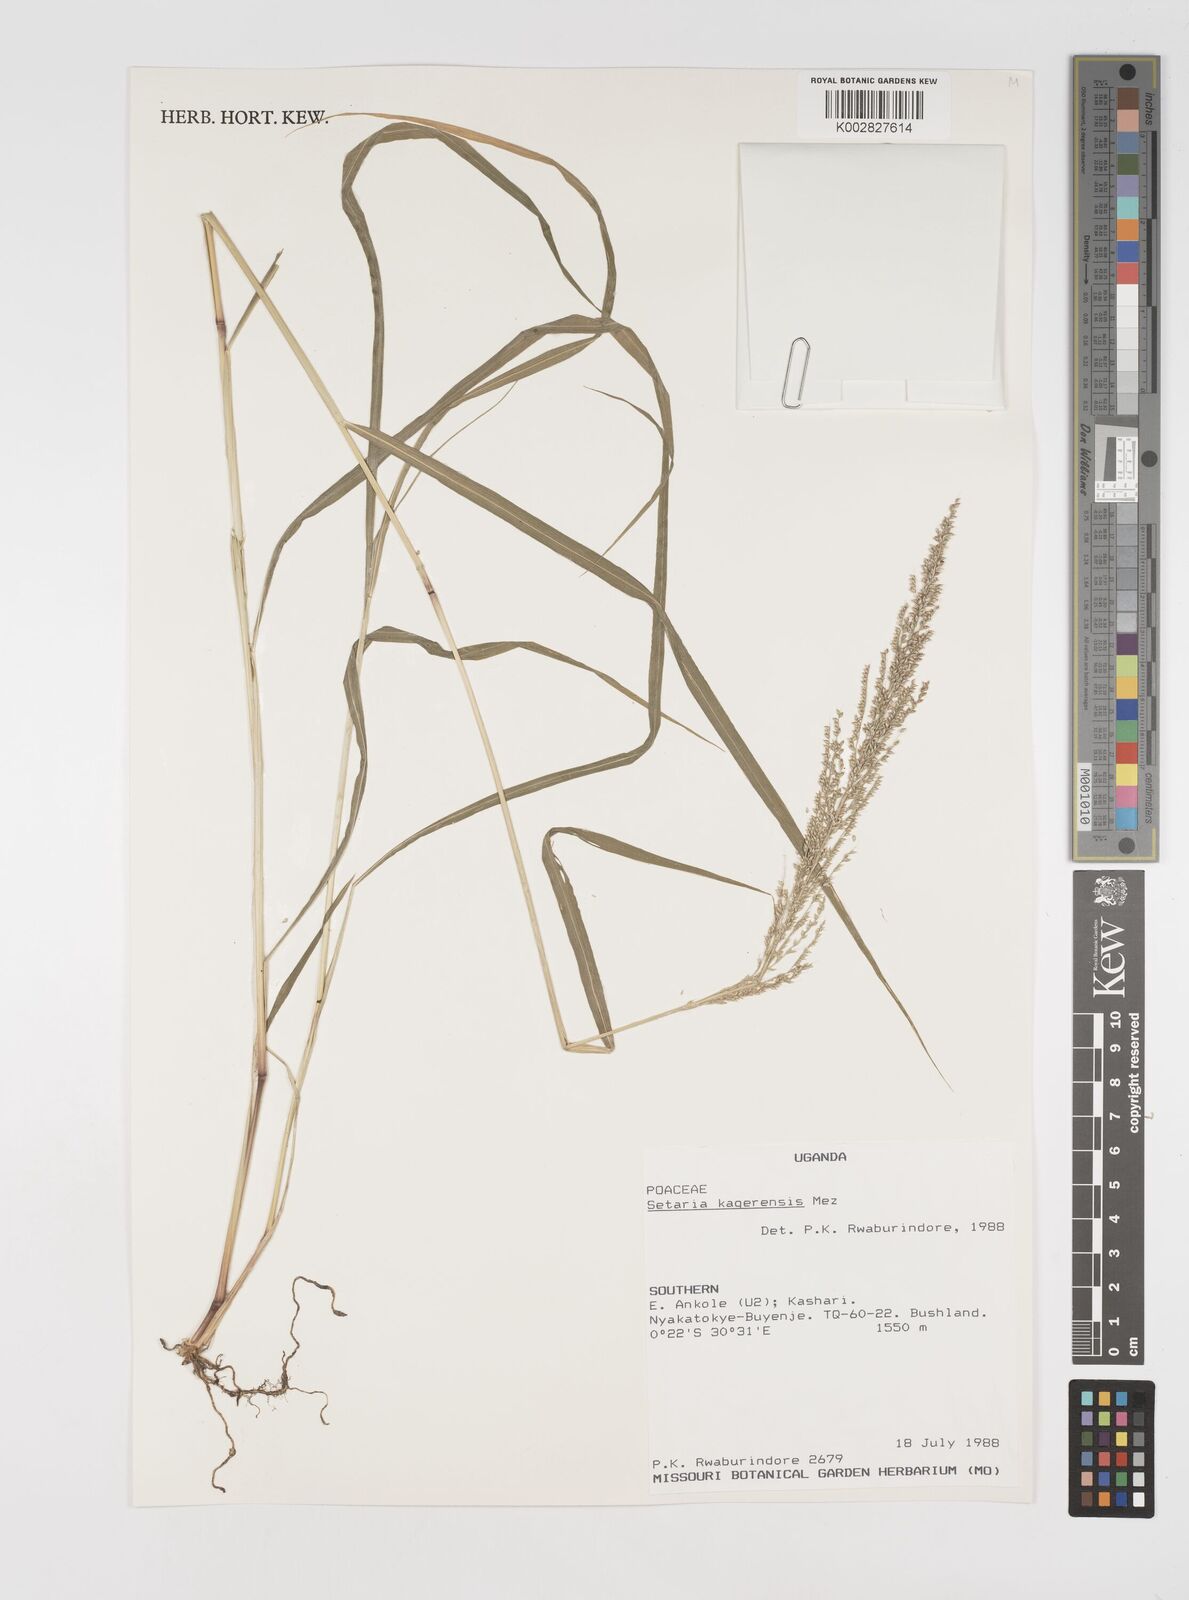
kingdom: Plantae
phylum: Tracheophyta
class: Liliopsida
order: Poales
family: Poaceae
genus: Setaria
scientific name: Setaria kagerensis
